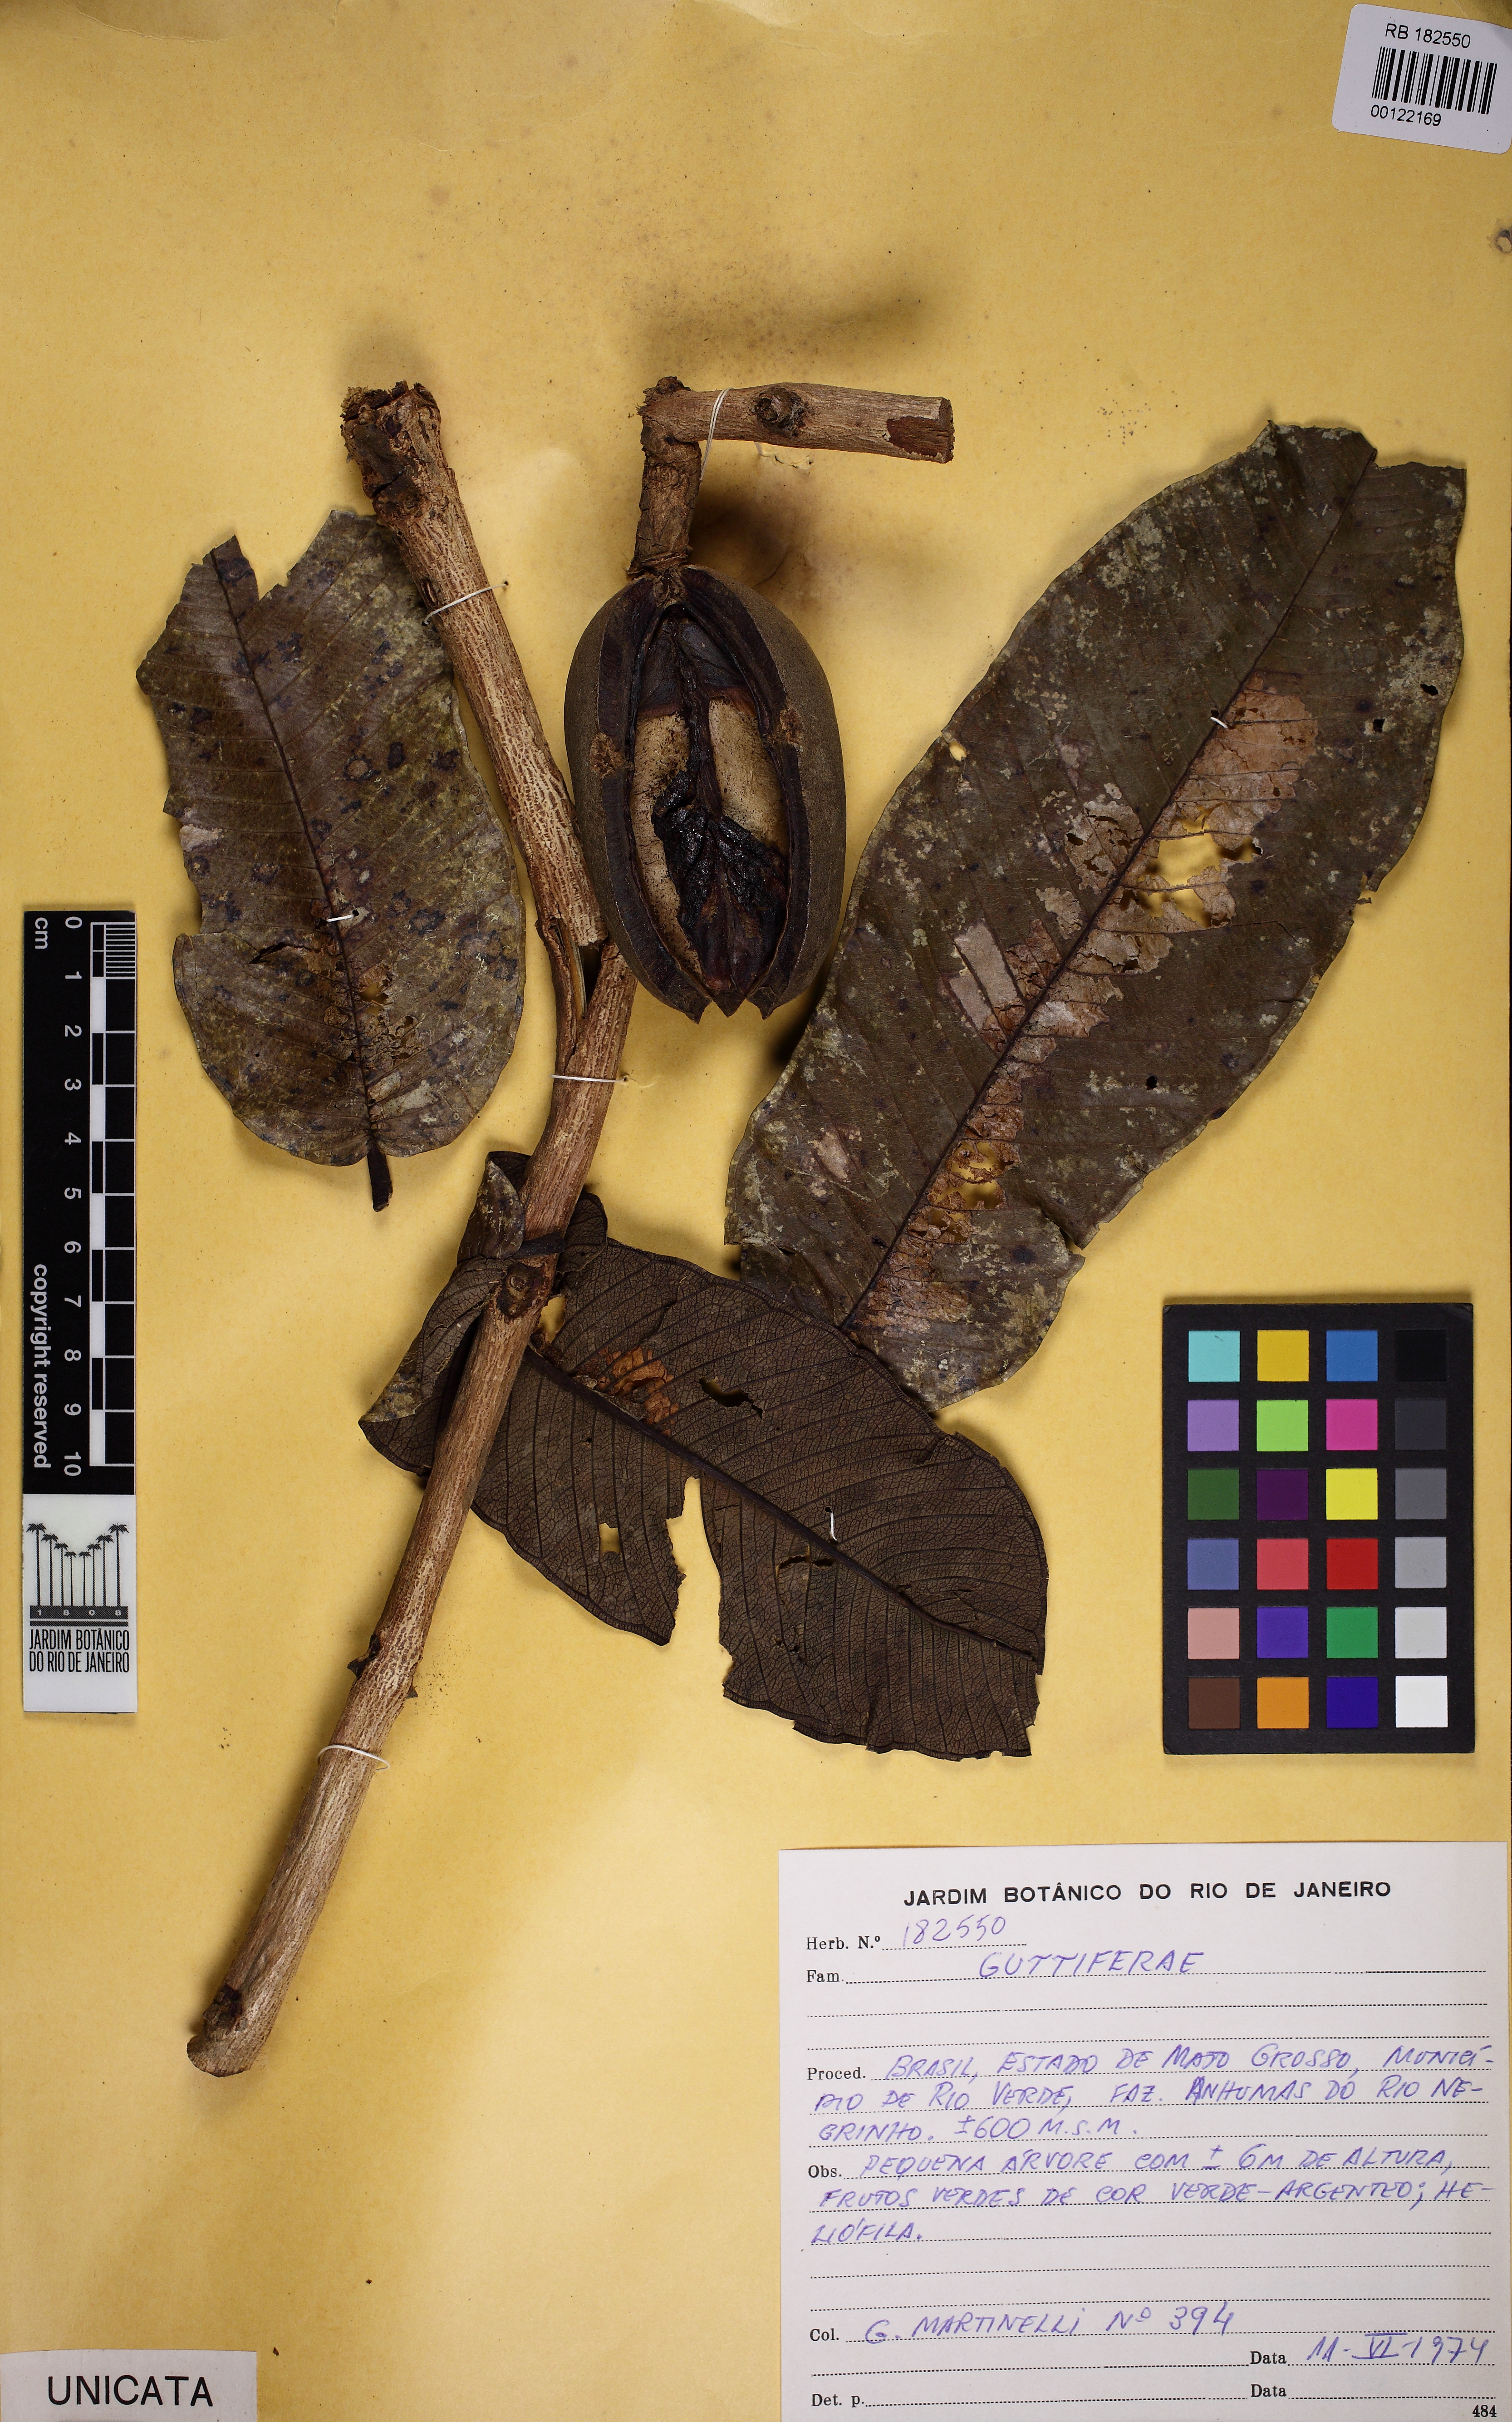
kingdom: Plantae
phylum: Tracheophyta
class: Magnoliopsida
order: Myrtales
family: Vochysiaceae
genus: Qualea
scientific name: Qualea grandiflora
